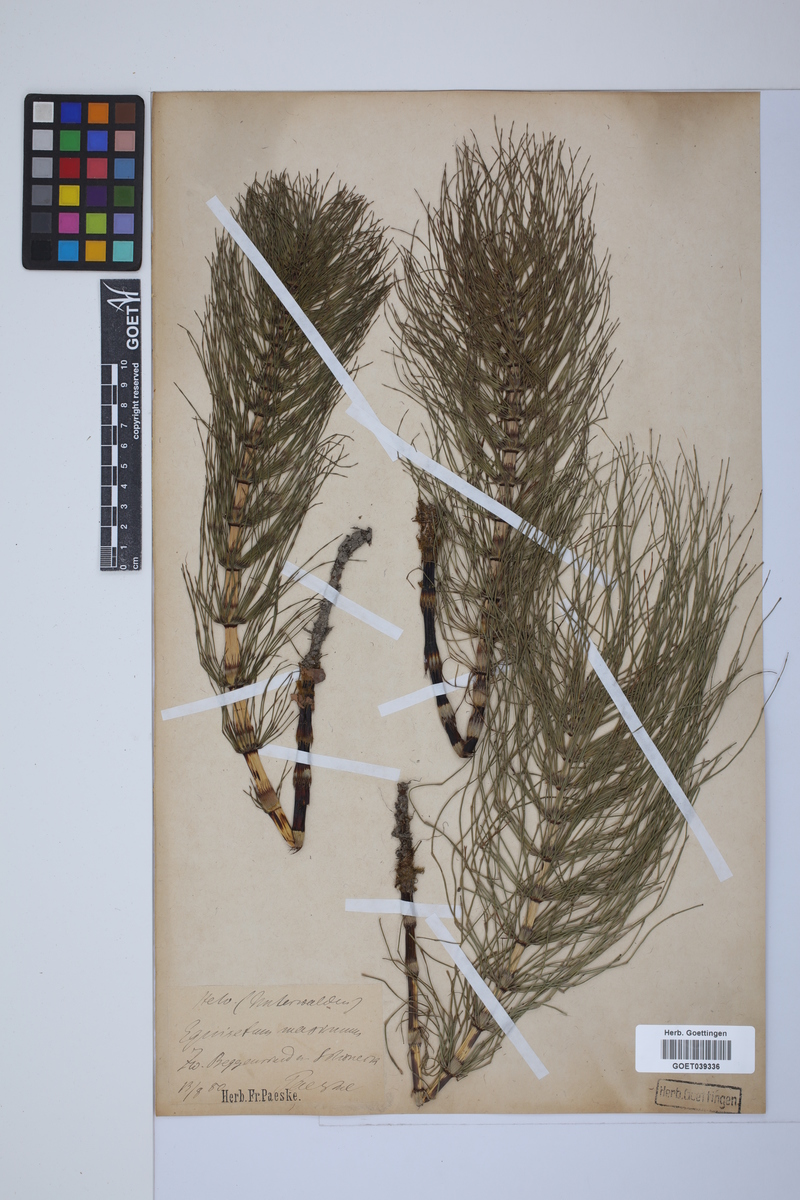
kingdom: Plantae
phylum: Tracheophyta
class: Polypodiopsida
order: Equisetales
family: Equisetaceae
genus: Equisetum
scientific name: Equisetum telmateia
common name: Great horsetail
